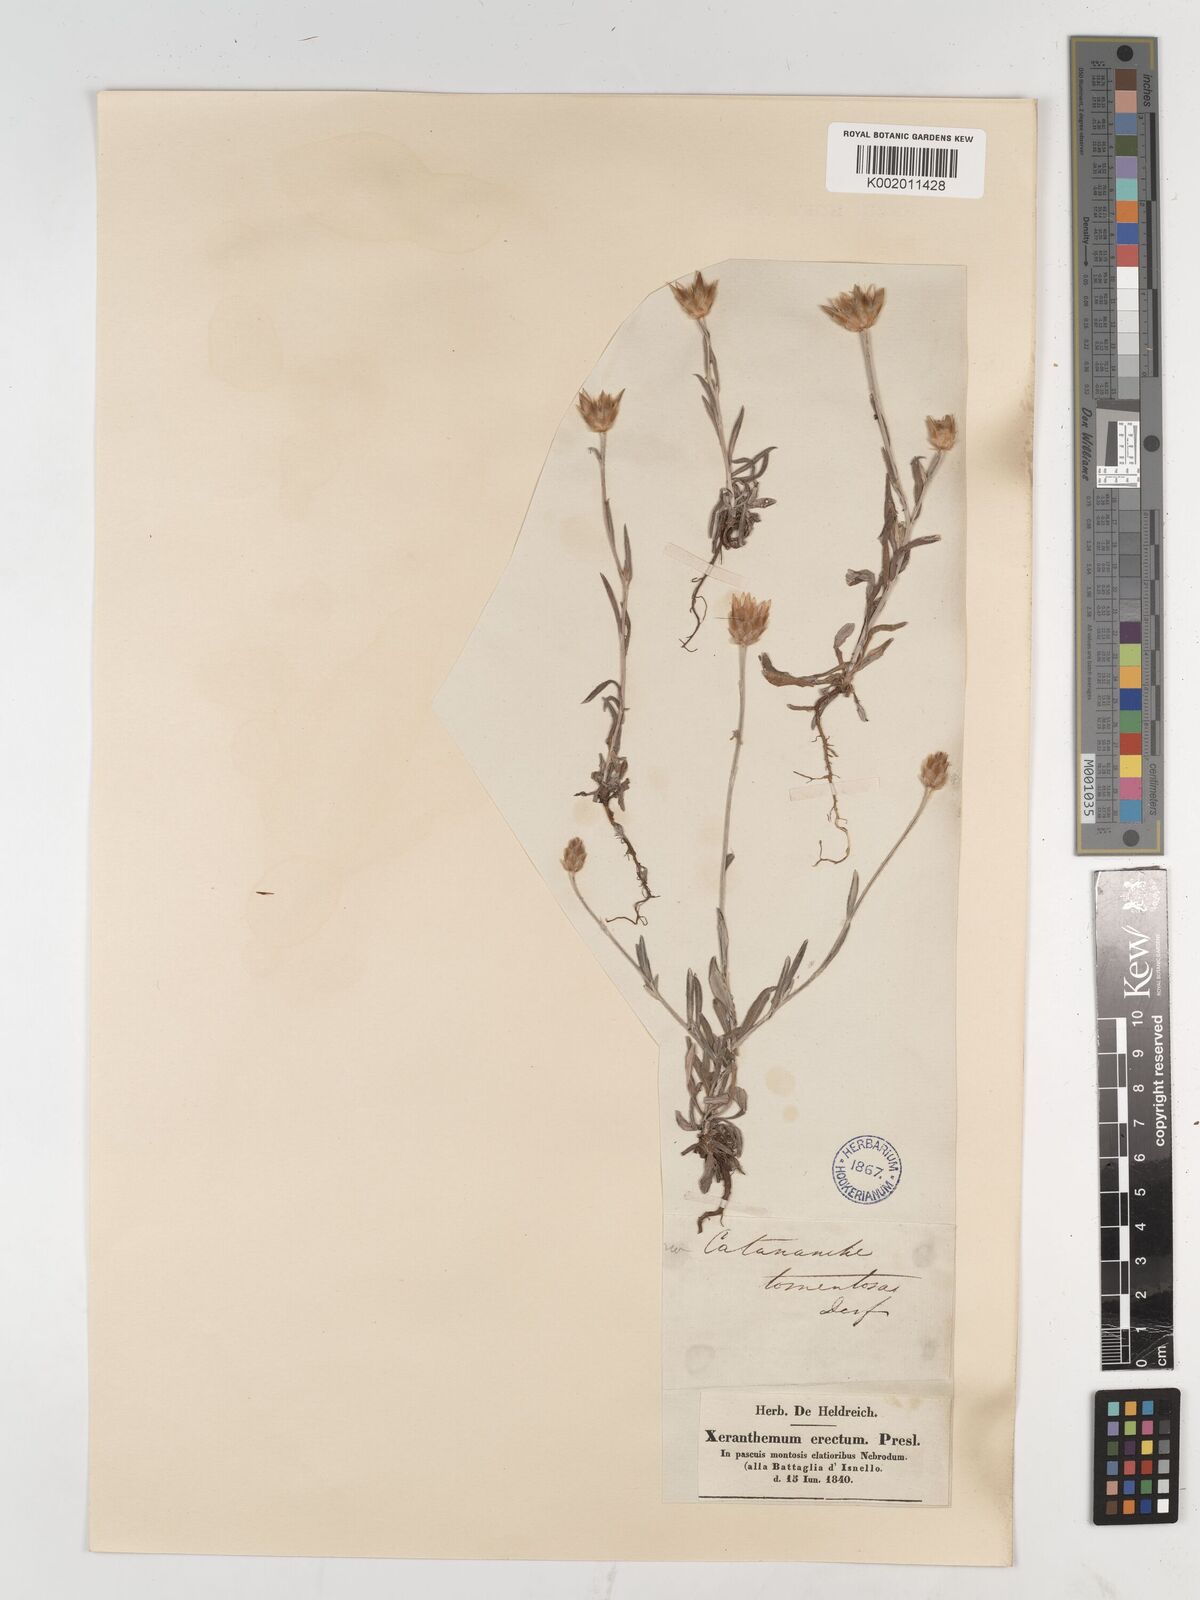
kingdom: Plantae
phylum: Tracheophyta
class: Magnoliopsida
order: Asterales
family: Asteraceae
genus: Xeranthemum
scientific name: Xeranthemum inapertum
